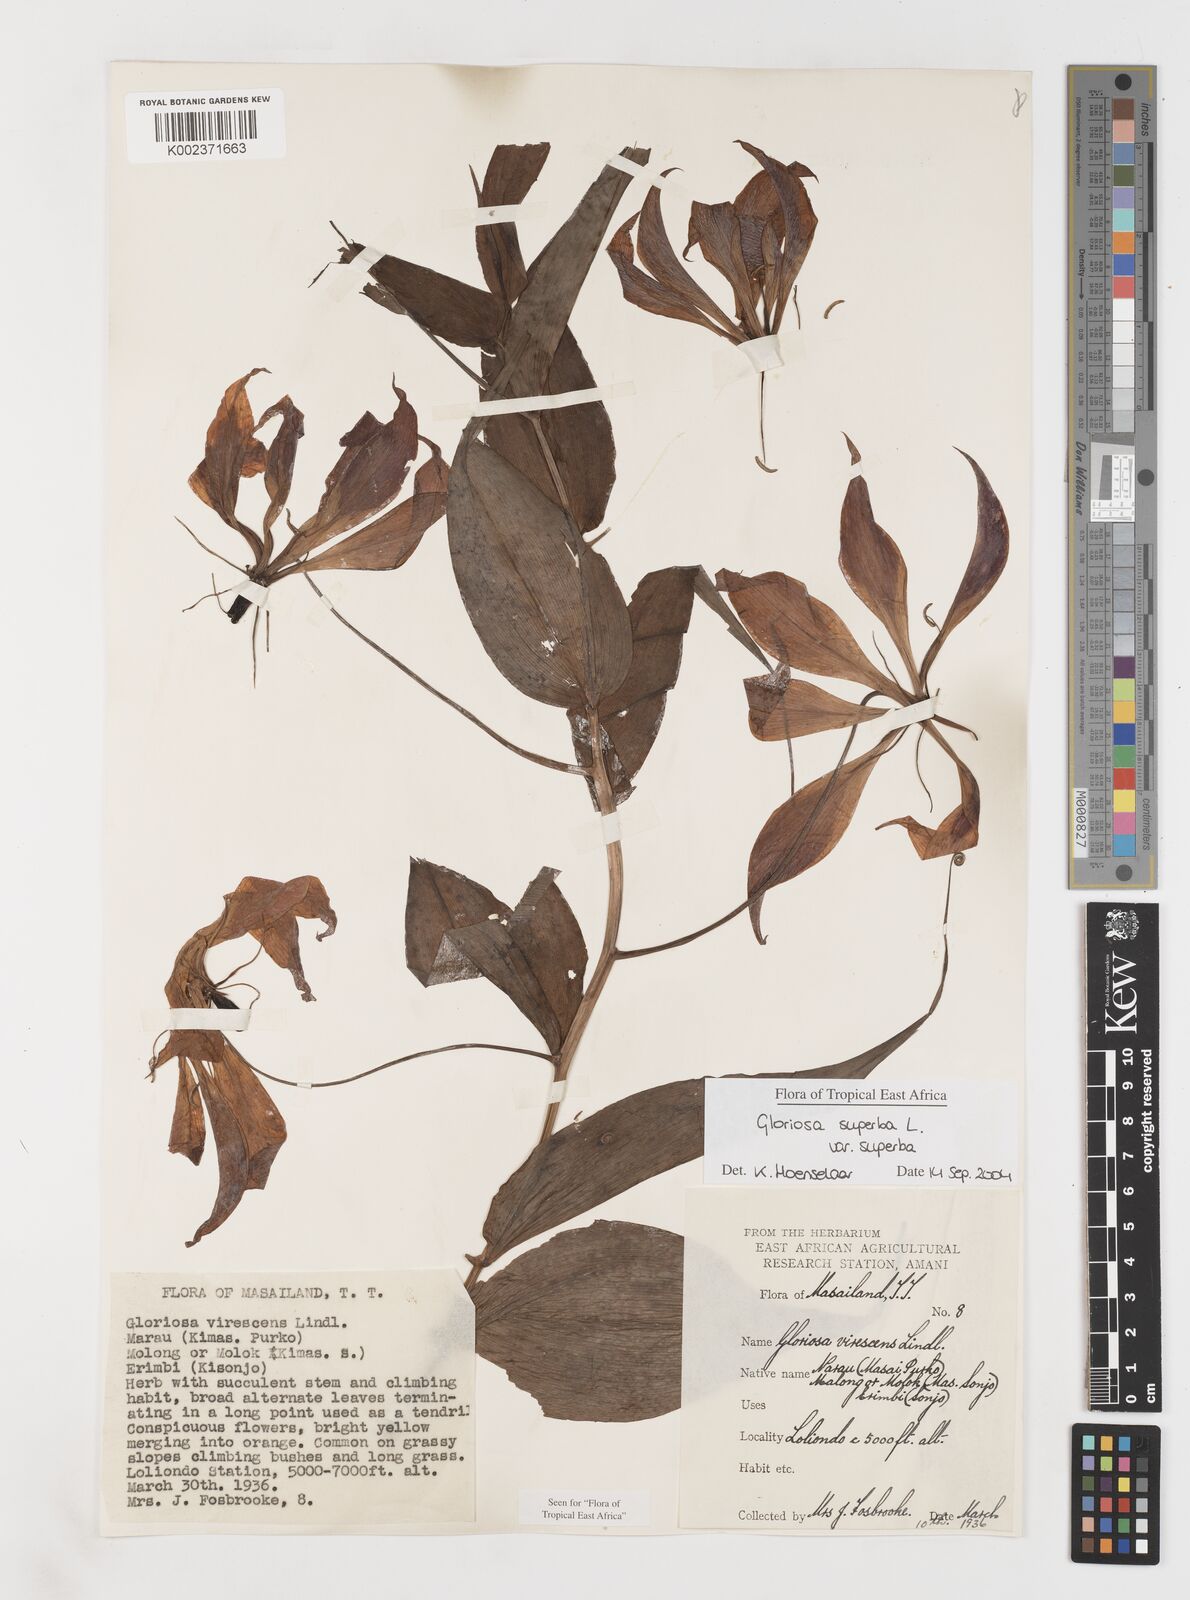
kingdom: Plantae
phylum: Tracheophyta
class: Liliopsida
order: Liliales
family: Colchicaceae
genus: Gloriosa
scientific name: Gloriosa simplex
